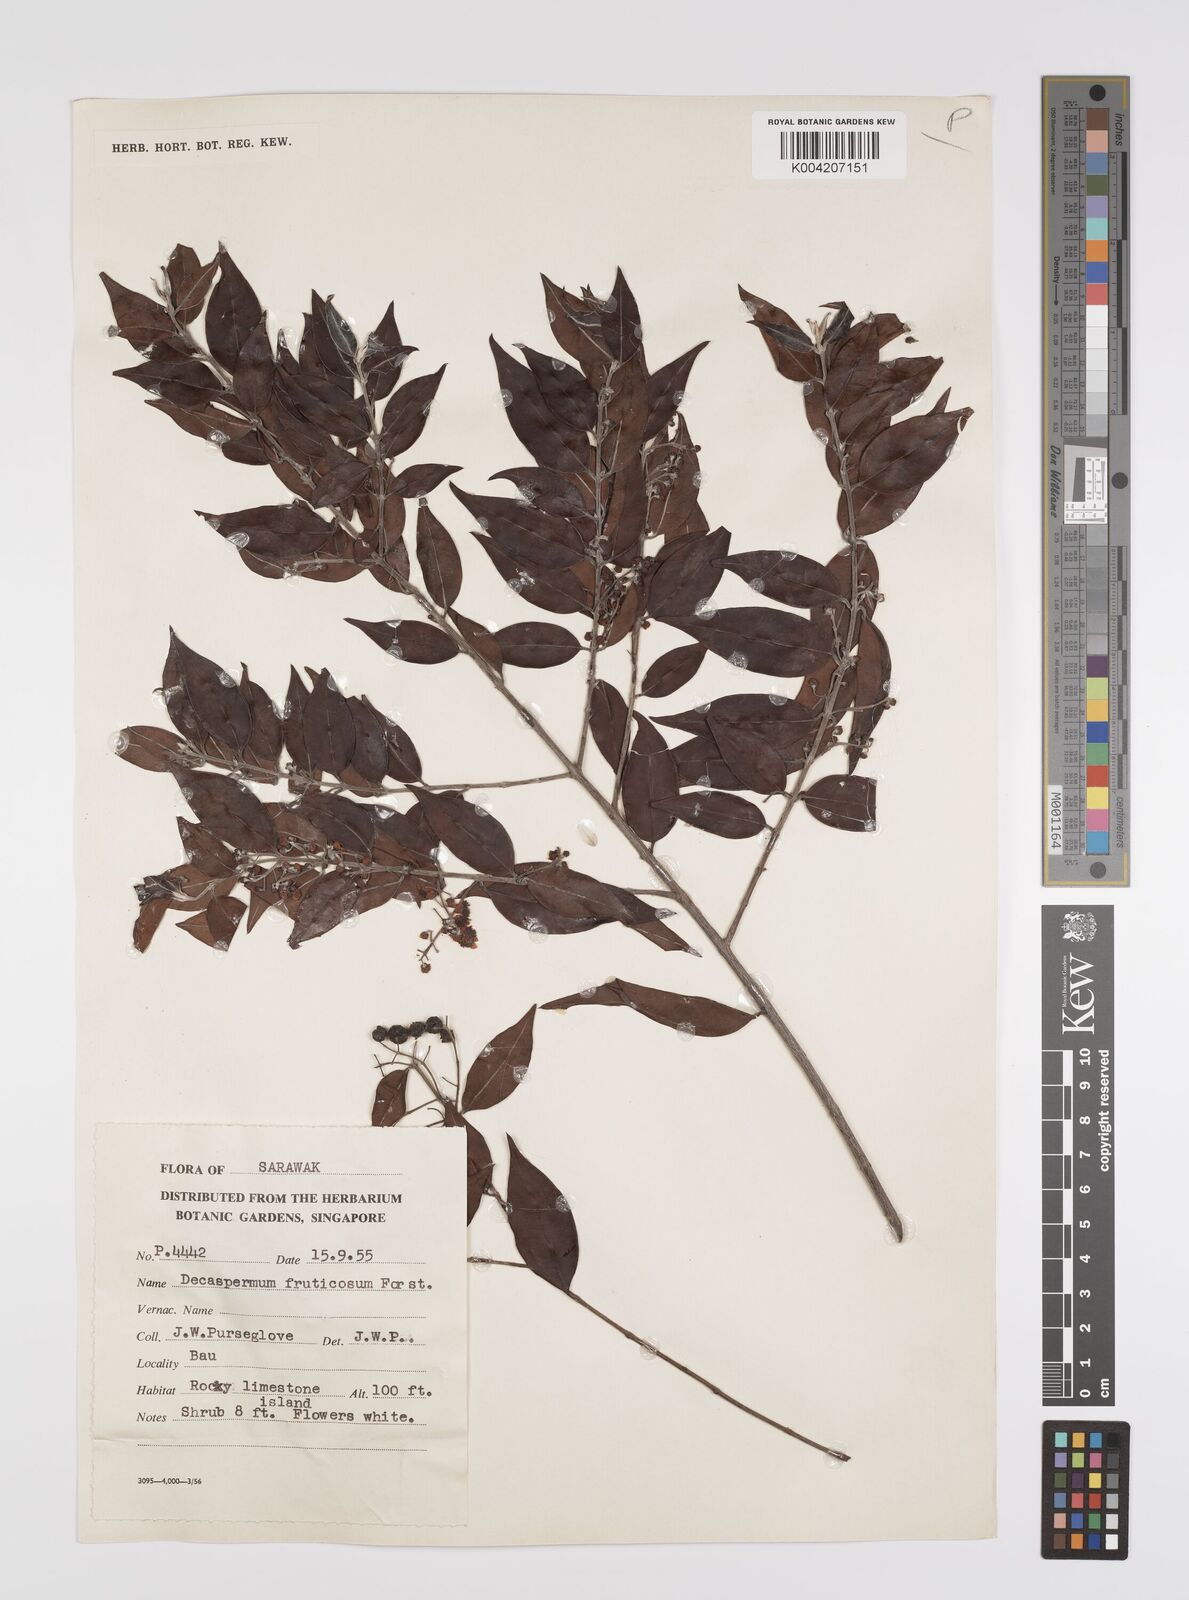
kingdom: Plantae
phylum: Tracheophyta
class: Magnoliopsida
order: Myrtales
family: Myrtaceae
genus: Decaspermum
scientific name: Decaspermum fruticosum
